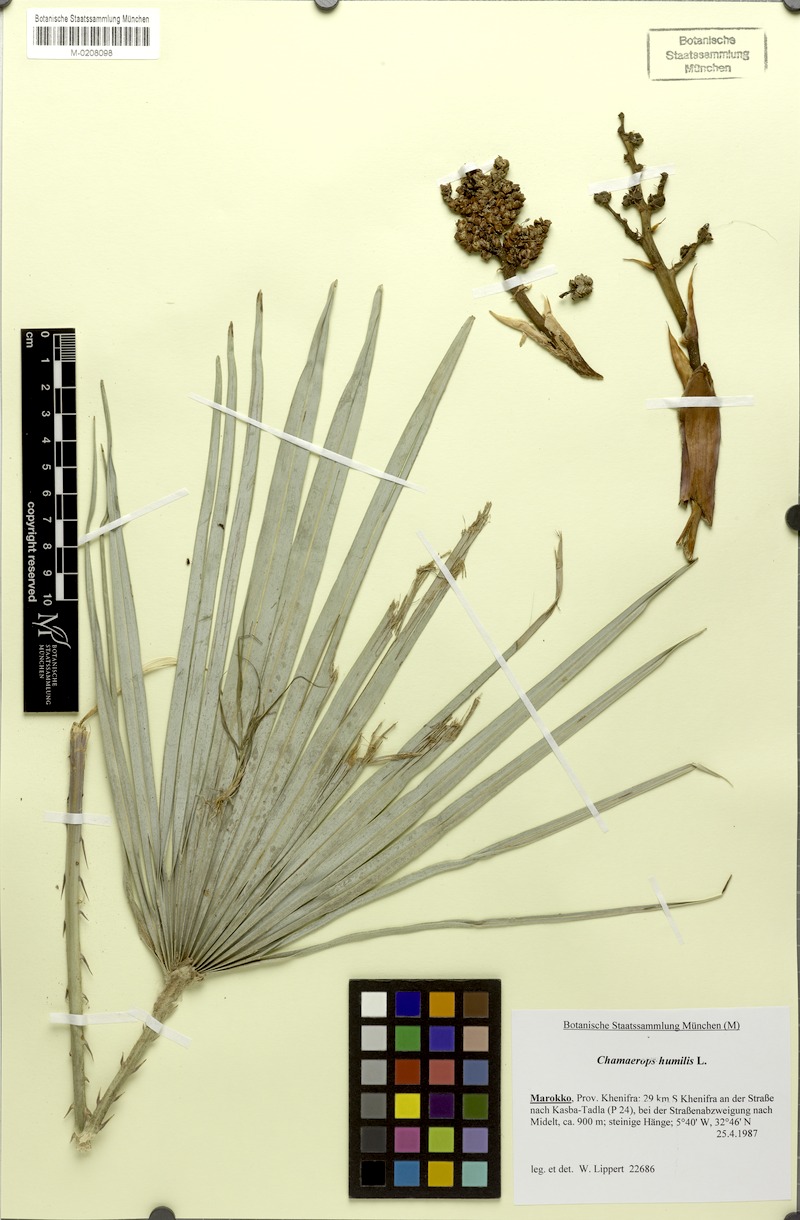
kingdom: Plantae
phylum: Tracheophyta
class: Liliopsida
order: Arecales
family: Arecaceae
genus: Chamaerops
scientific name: Chamaerops humilis
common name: Dwarf fan palm
